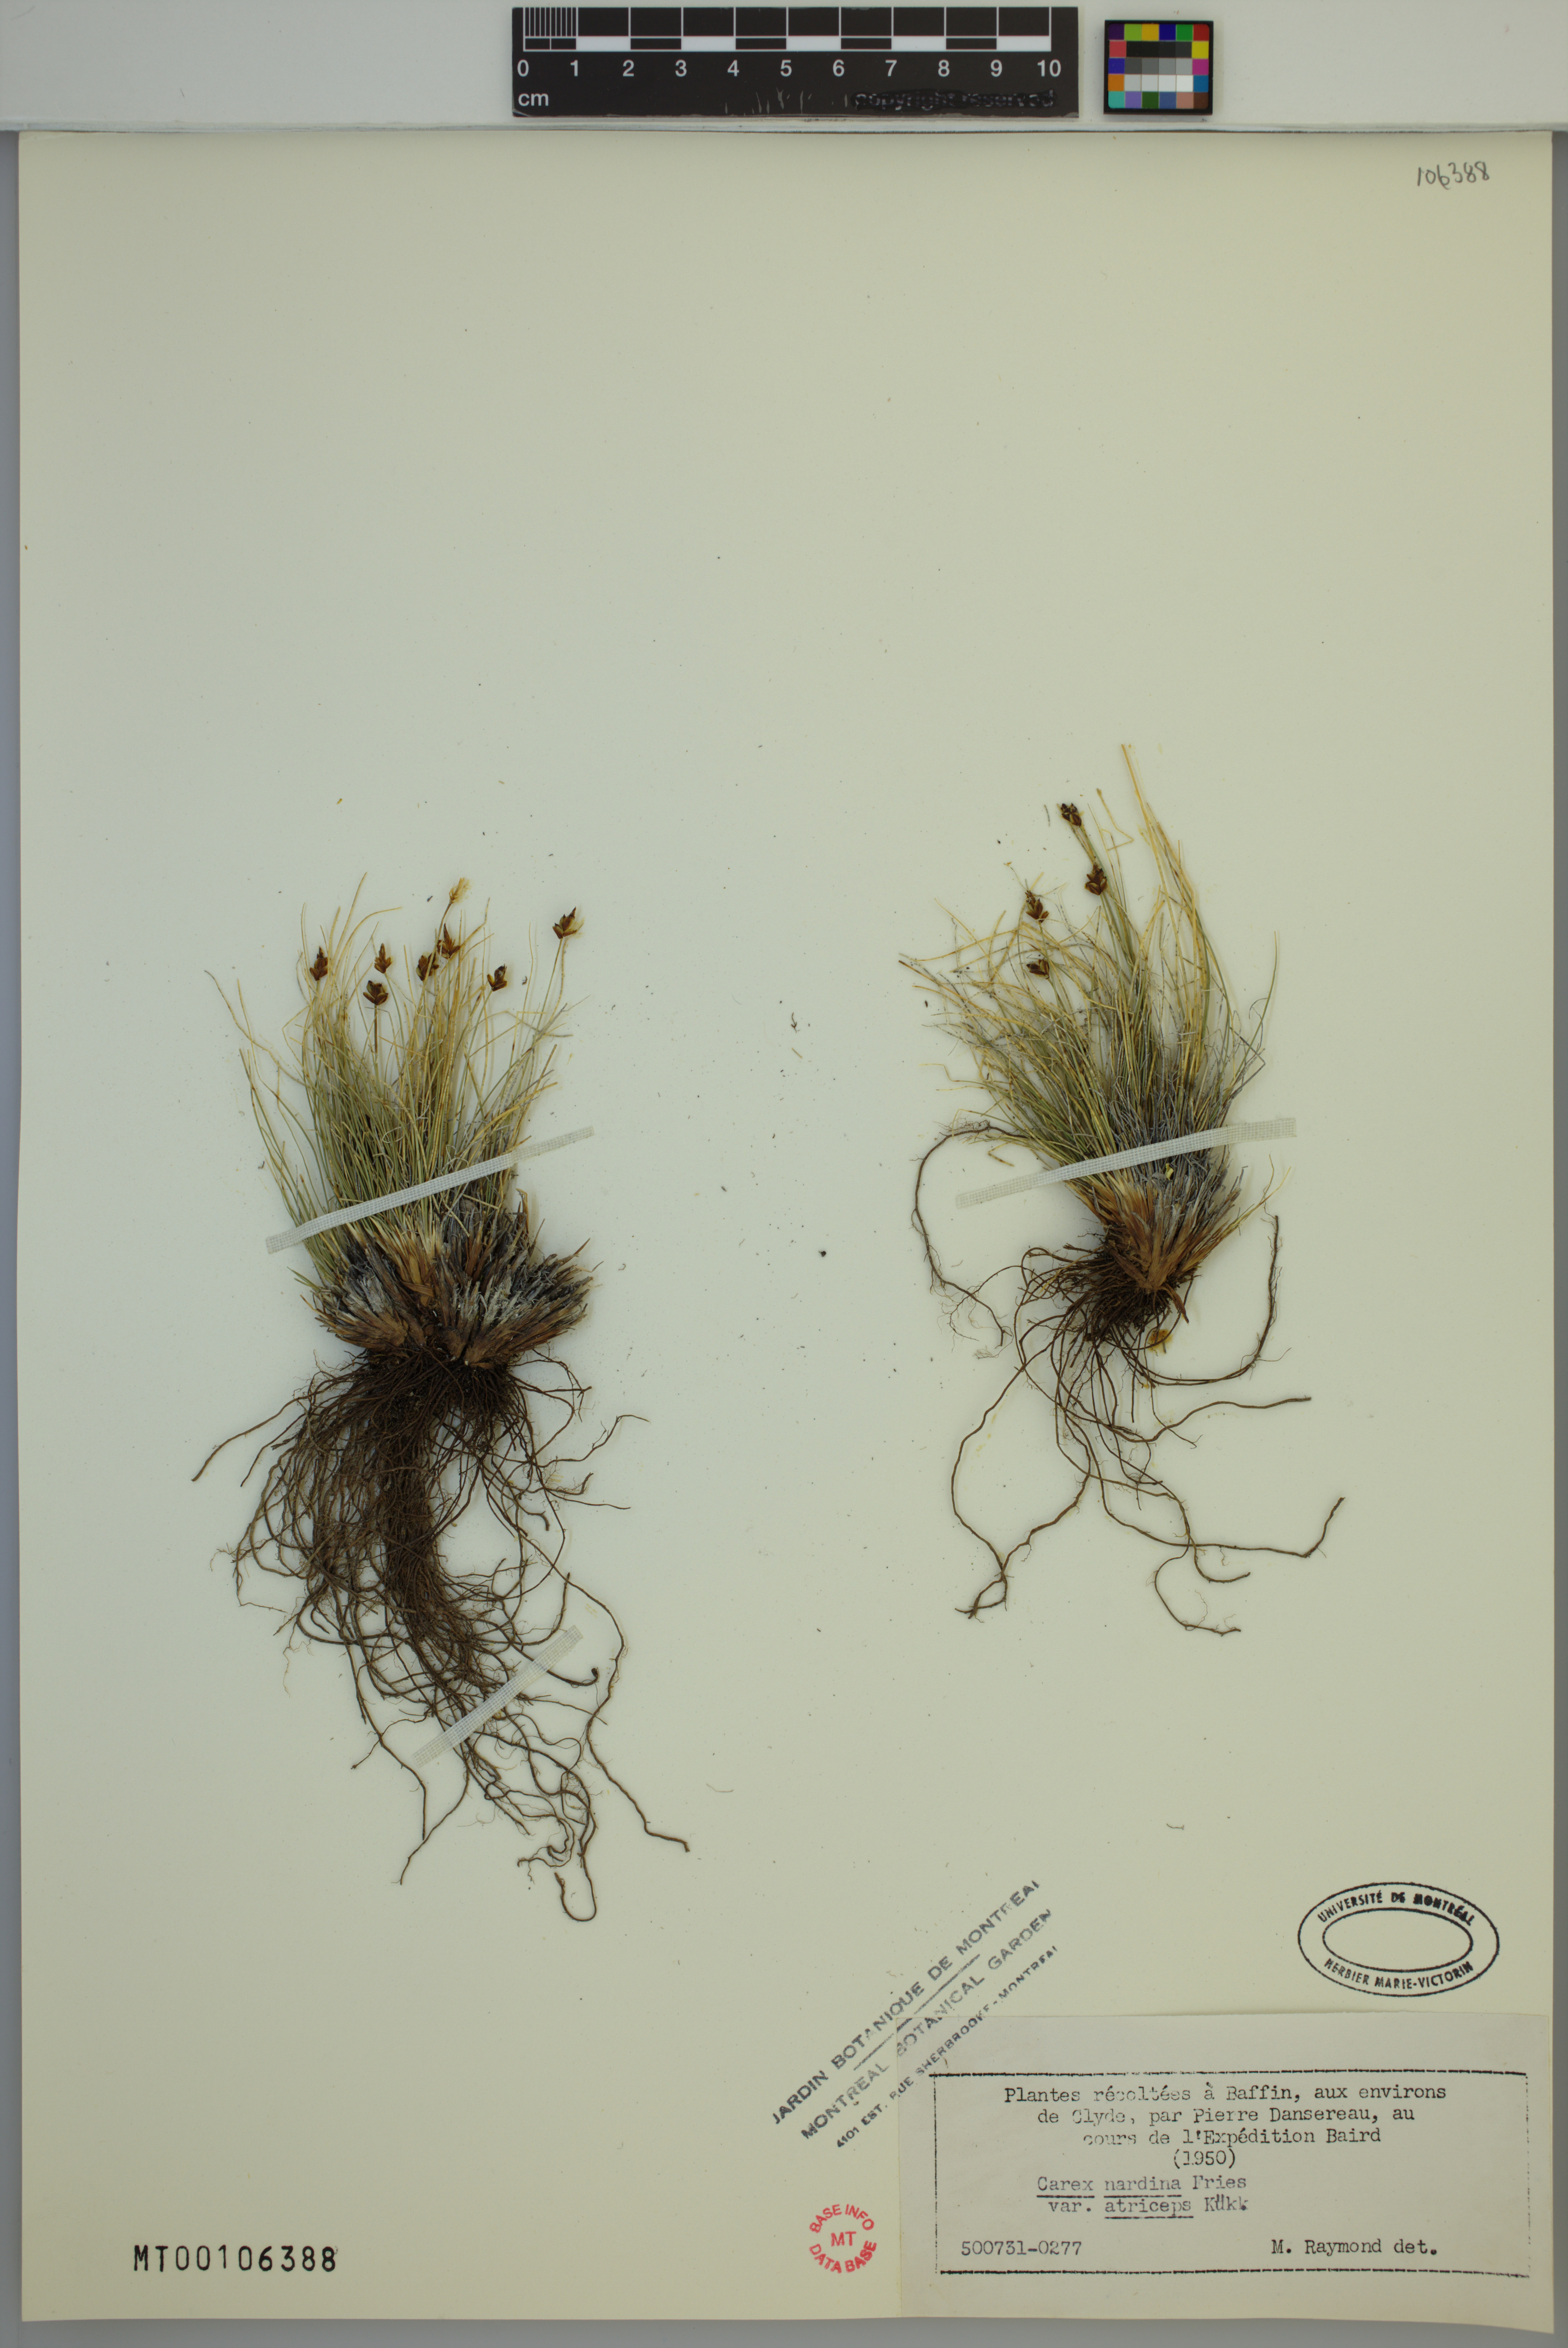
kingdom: Plantae
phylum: Tracheophyta
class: Liliopsida
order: Poales
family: Cyperaceae
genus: Carex
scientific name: Carex nardina
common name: Nard sedge
